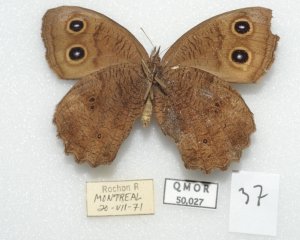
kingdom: Animalia
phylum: Arthropoda
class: Insecta
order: Lepidoptera
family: Nymphalidae
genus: Cercyonis
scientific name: Cercyonis pegala
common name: Common Wood-Nymph
